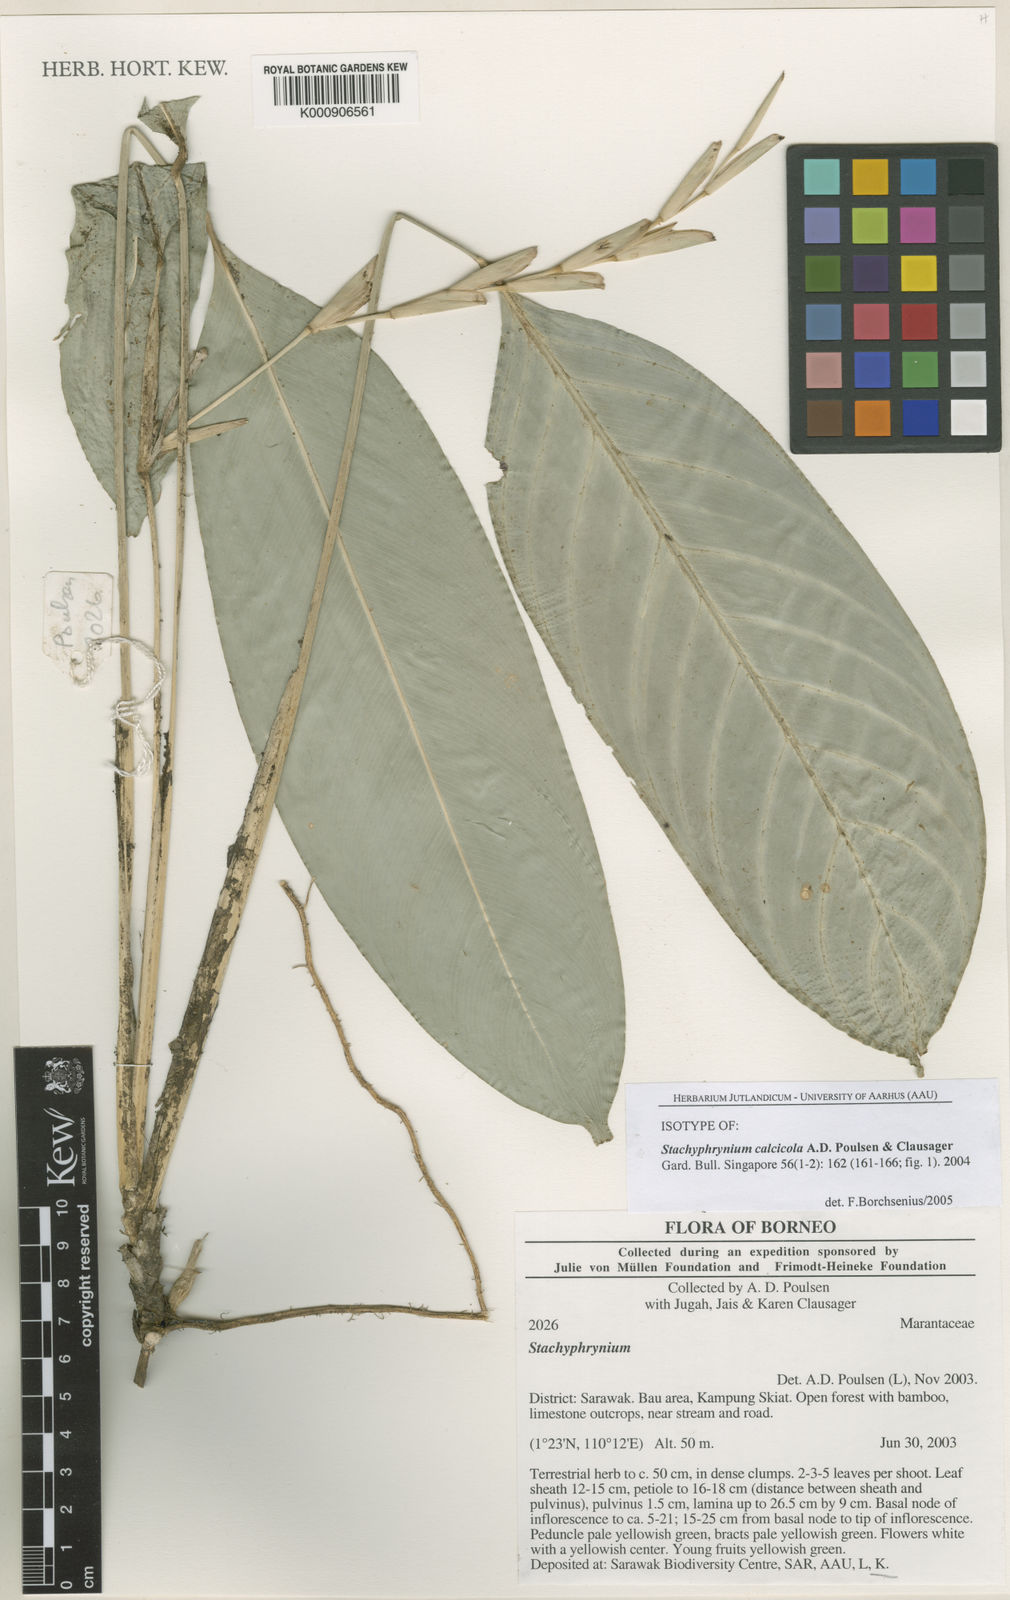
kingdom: Plantae
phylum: Tracheophyta
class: Liliopsida
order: Zingiberales
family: Marantaceae
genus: Stachyphrynium
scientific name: Stachyphrynium calcicola
